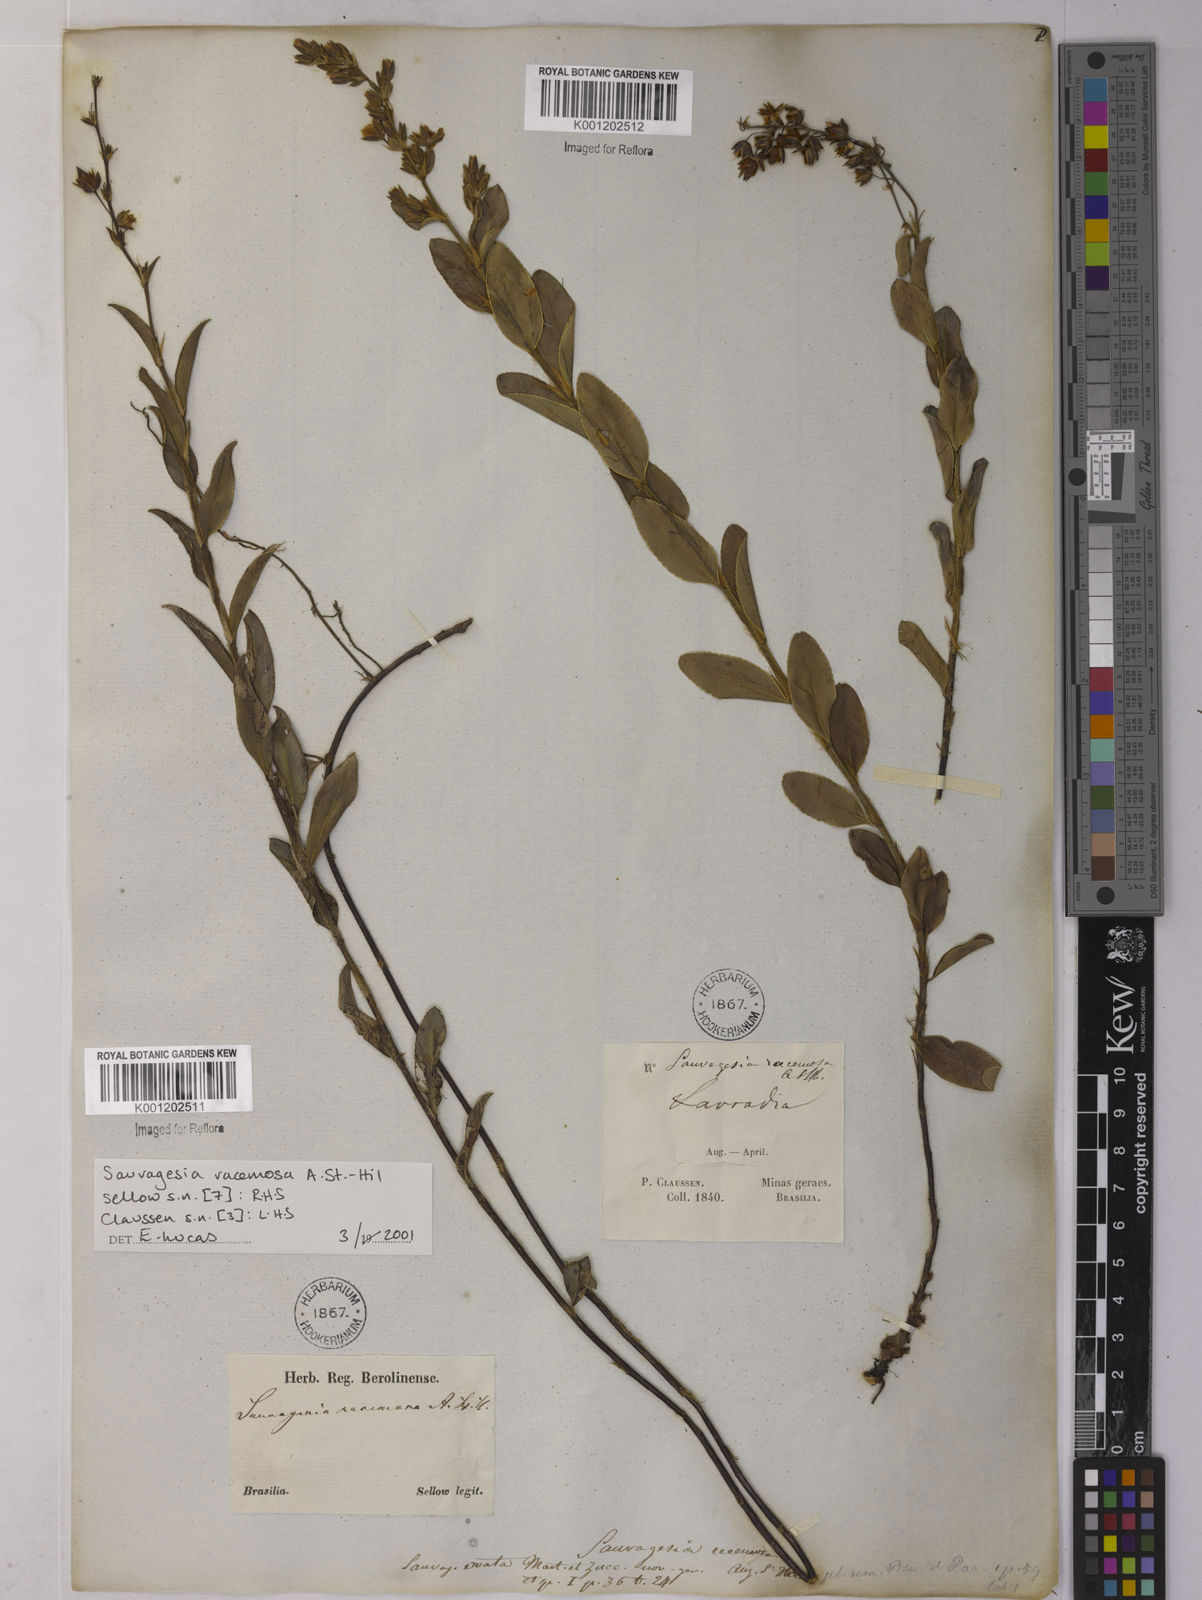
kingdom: Plantae
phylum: Tracheophyta
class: Magnoliopsida
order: Malpighiales
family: Ochnaceae
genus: Sauvagesia
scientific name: Sauvagesia racemosa
